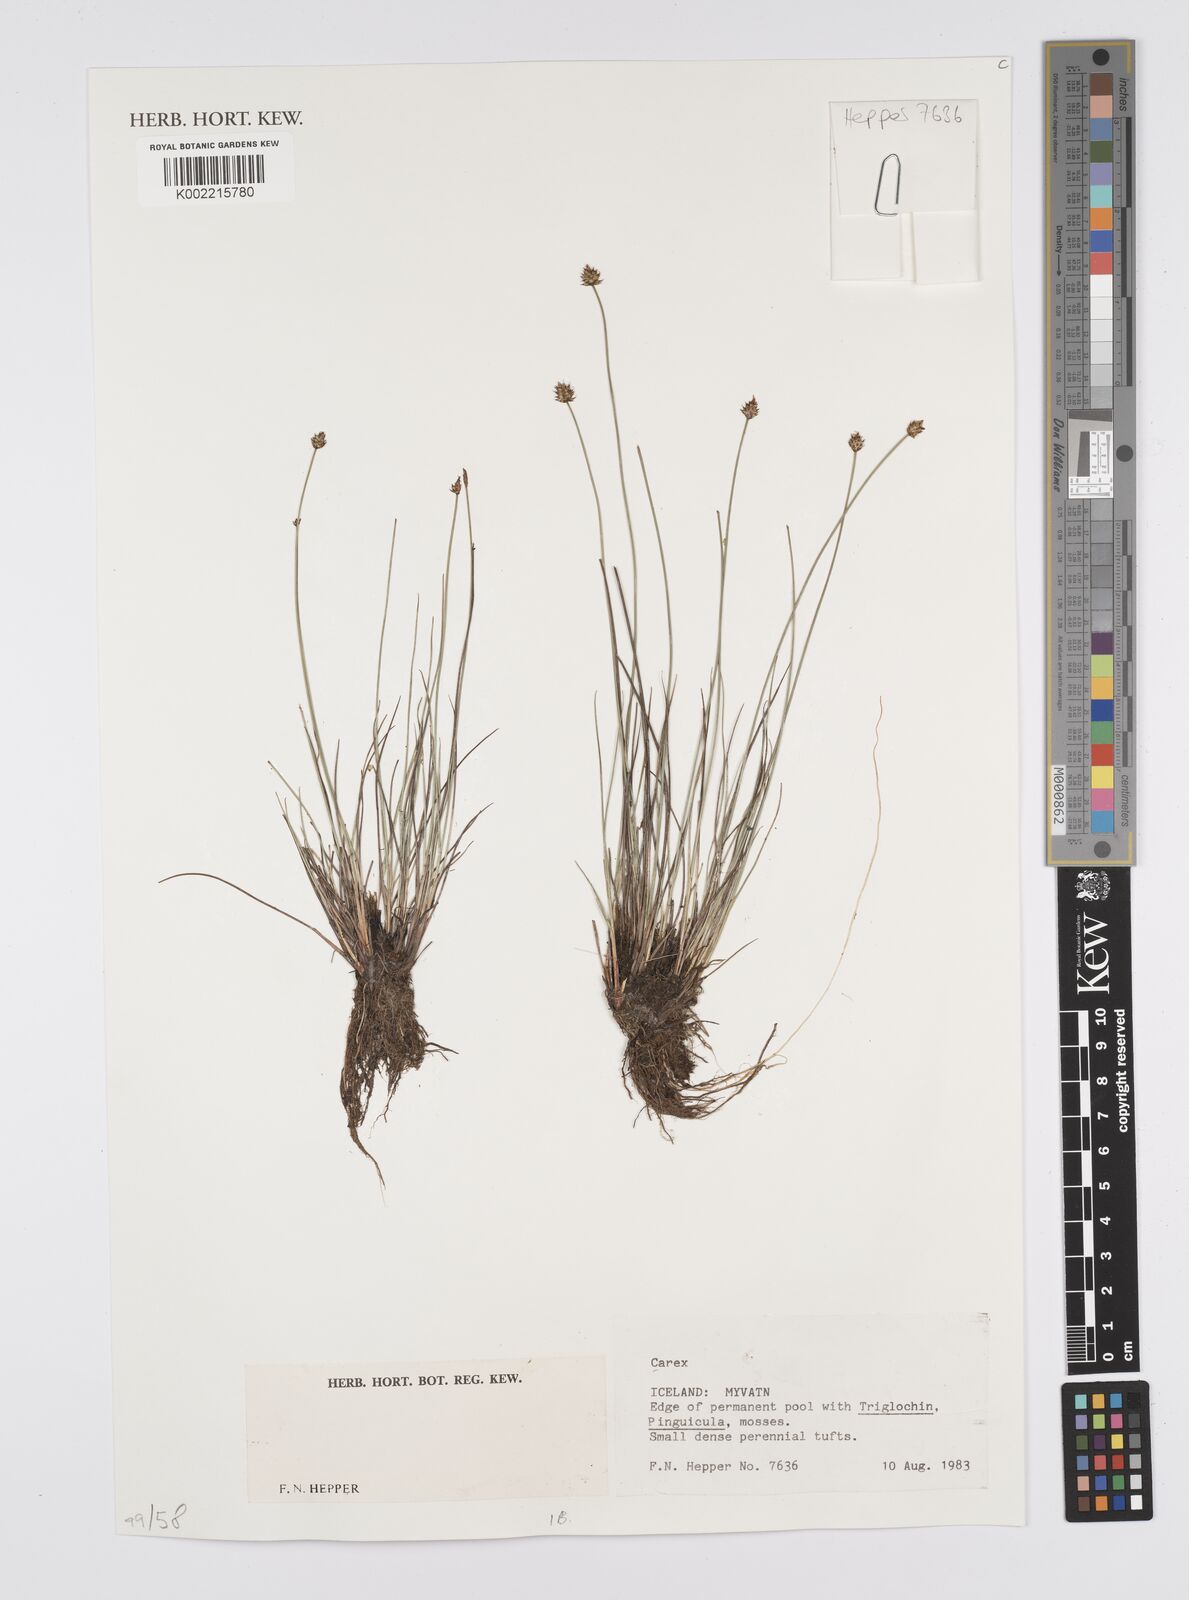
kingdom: Plantae
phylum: Tracheophyta
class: Liliopsida
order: Poales
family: Cyperaceae
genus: Carex
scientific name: Carex
